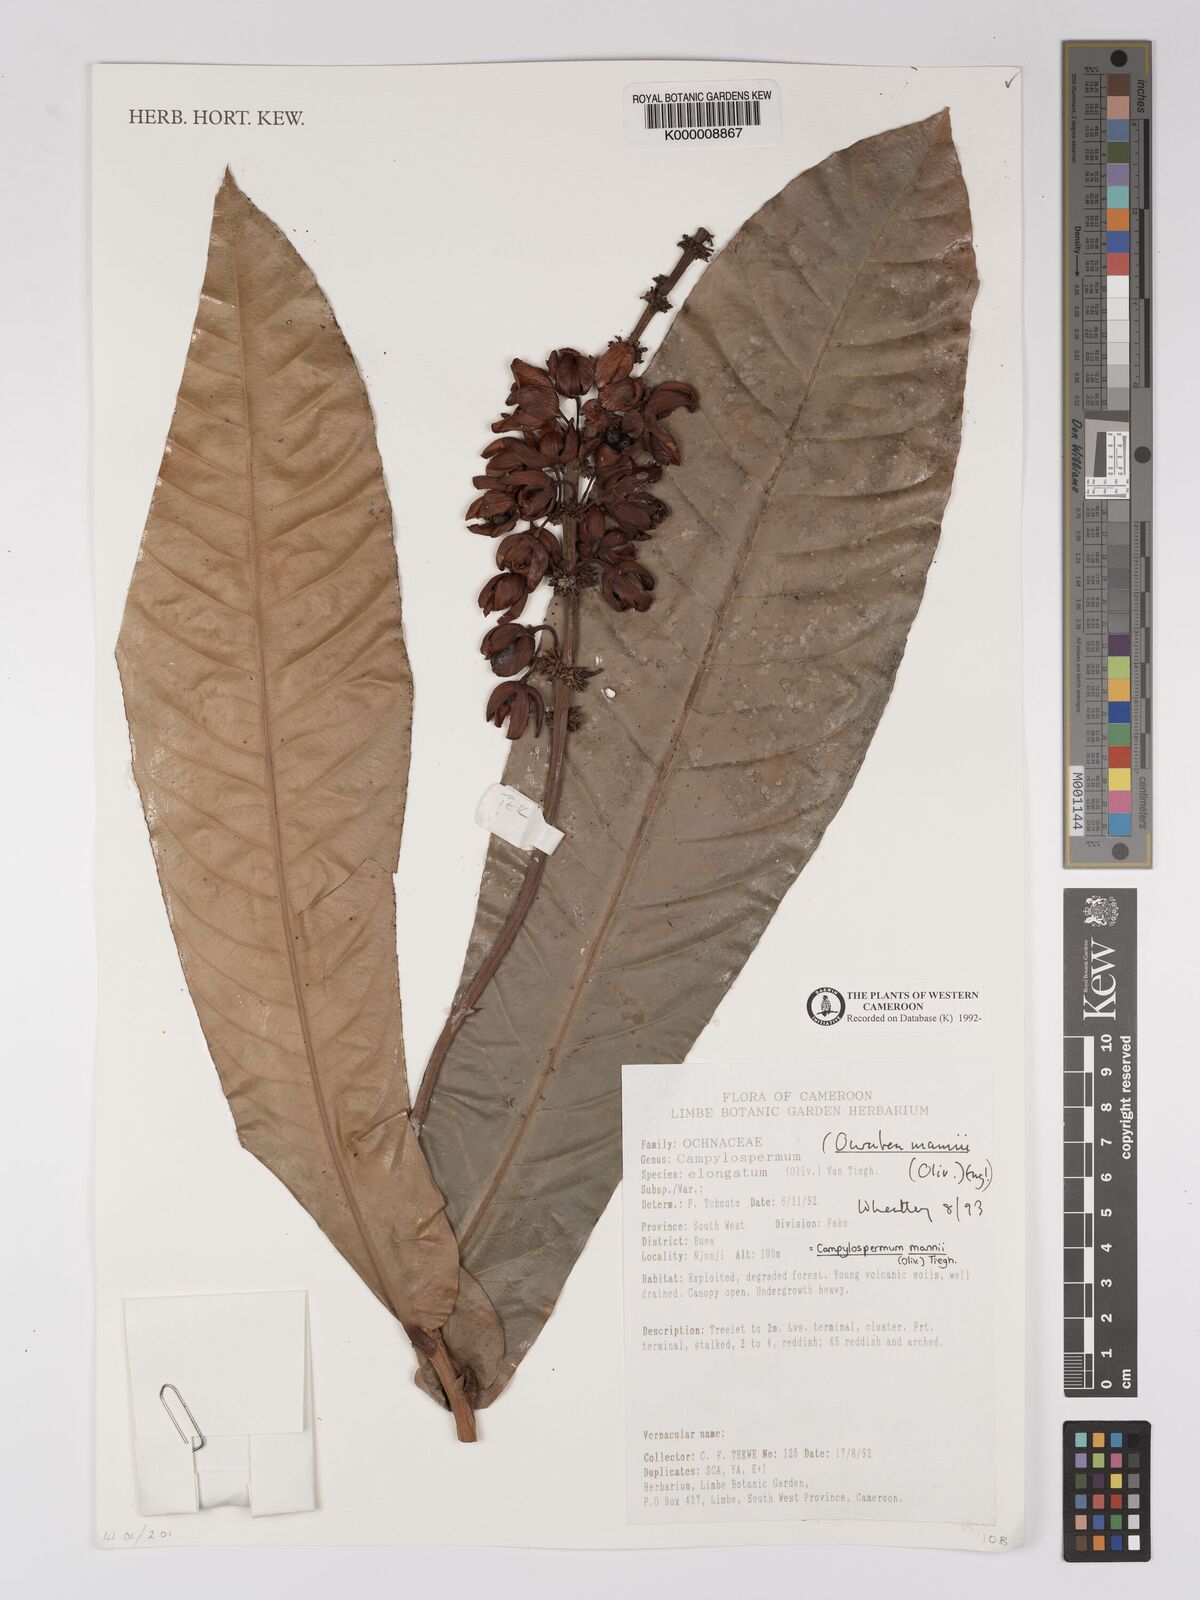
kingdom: Plantae
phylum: Tracheophyta
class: Magnoliopsida
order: Malpighiales
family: Ochnaceae
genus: Campylospermum
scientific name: Campylospermum mannii
